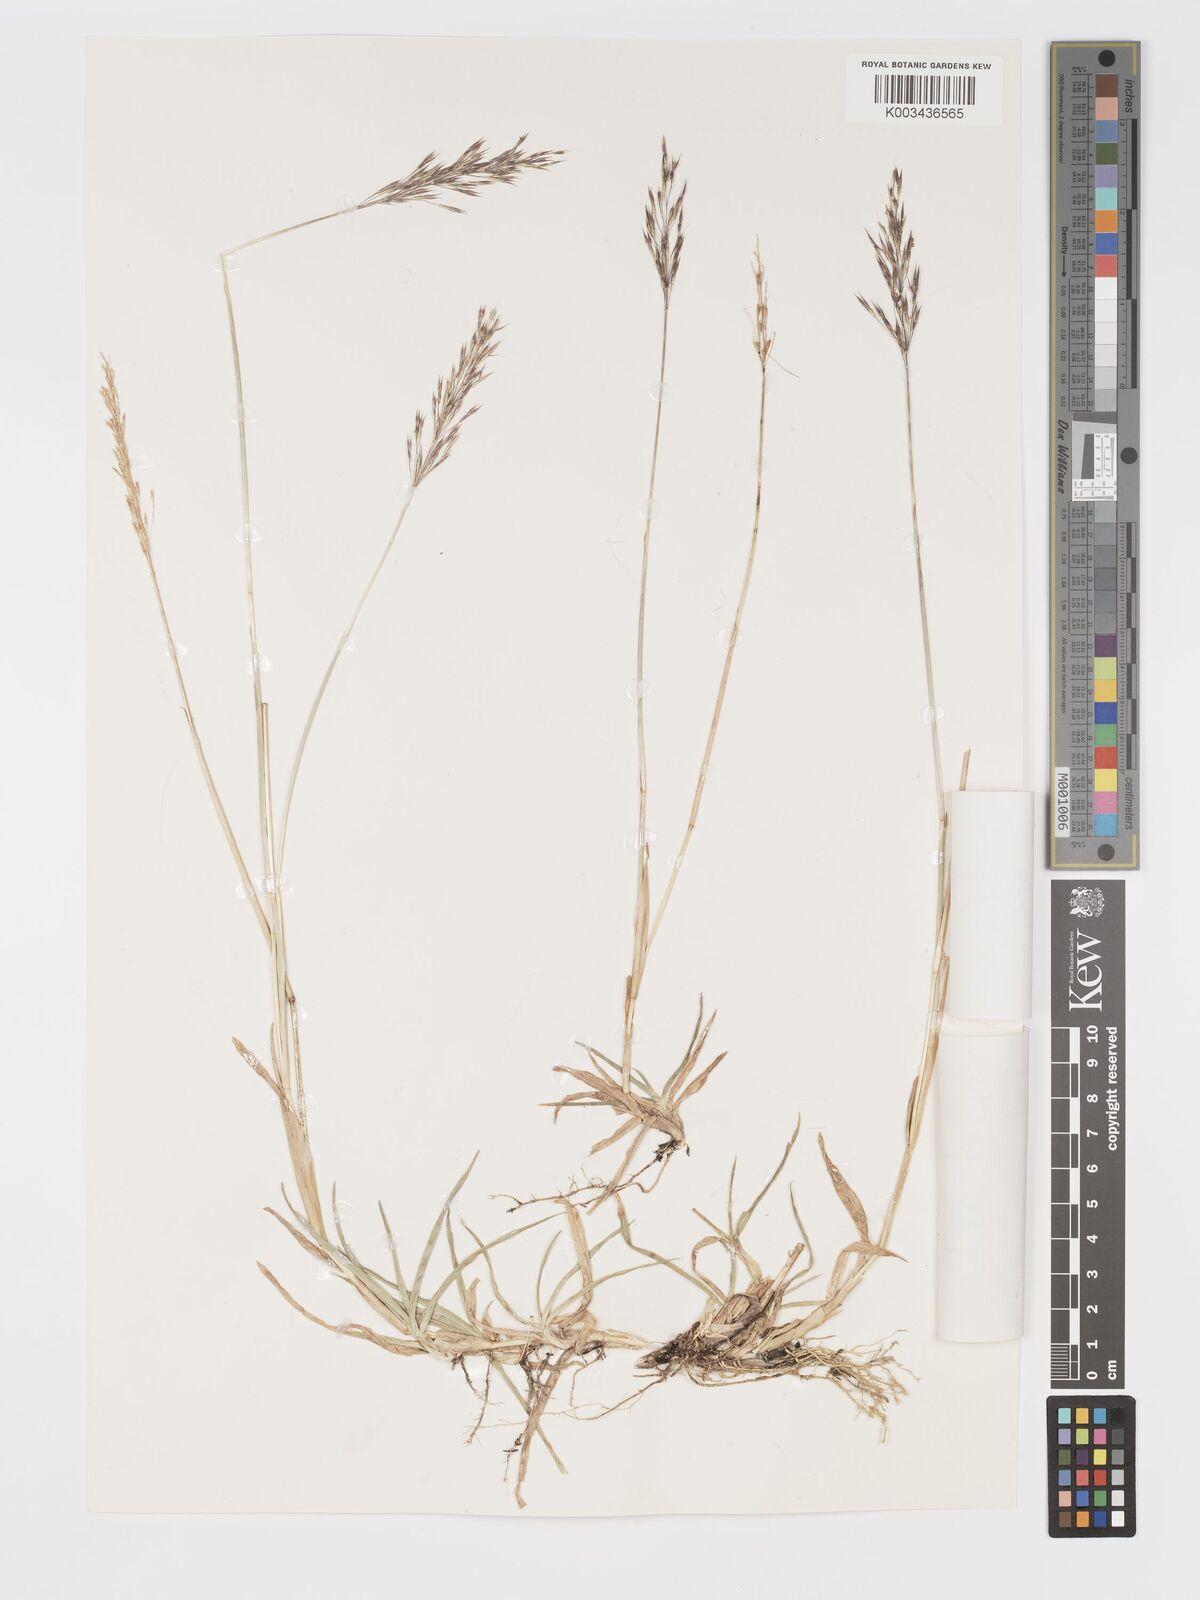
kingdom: Plantae
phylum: Tracheophyta
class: Liliopsida
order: Poales
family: Poaceae
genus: Chrysopogon
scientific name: Chrysopogon aciculatus
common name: Pilipiliula
